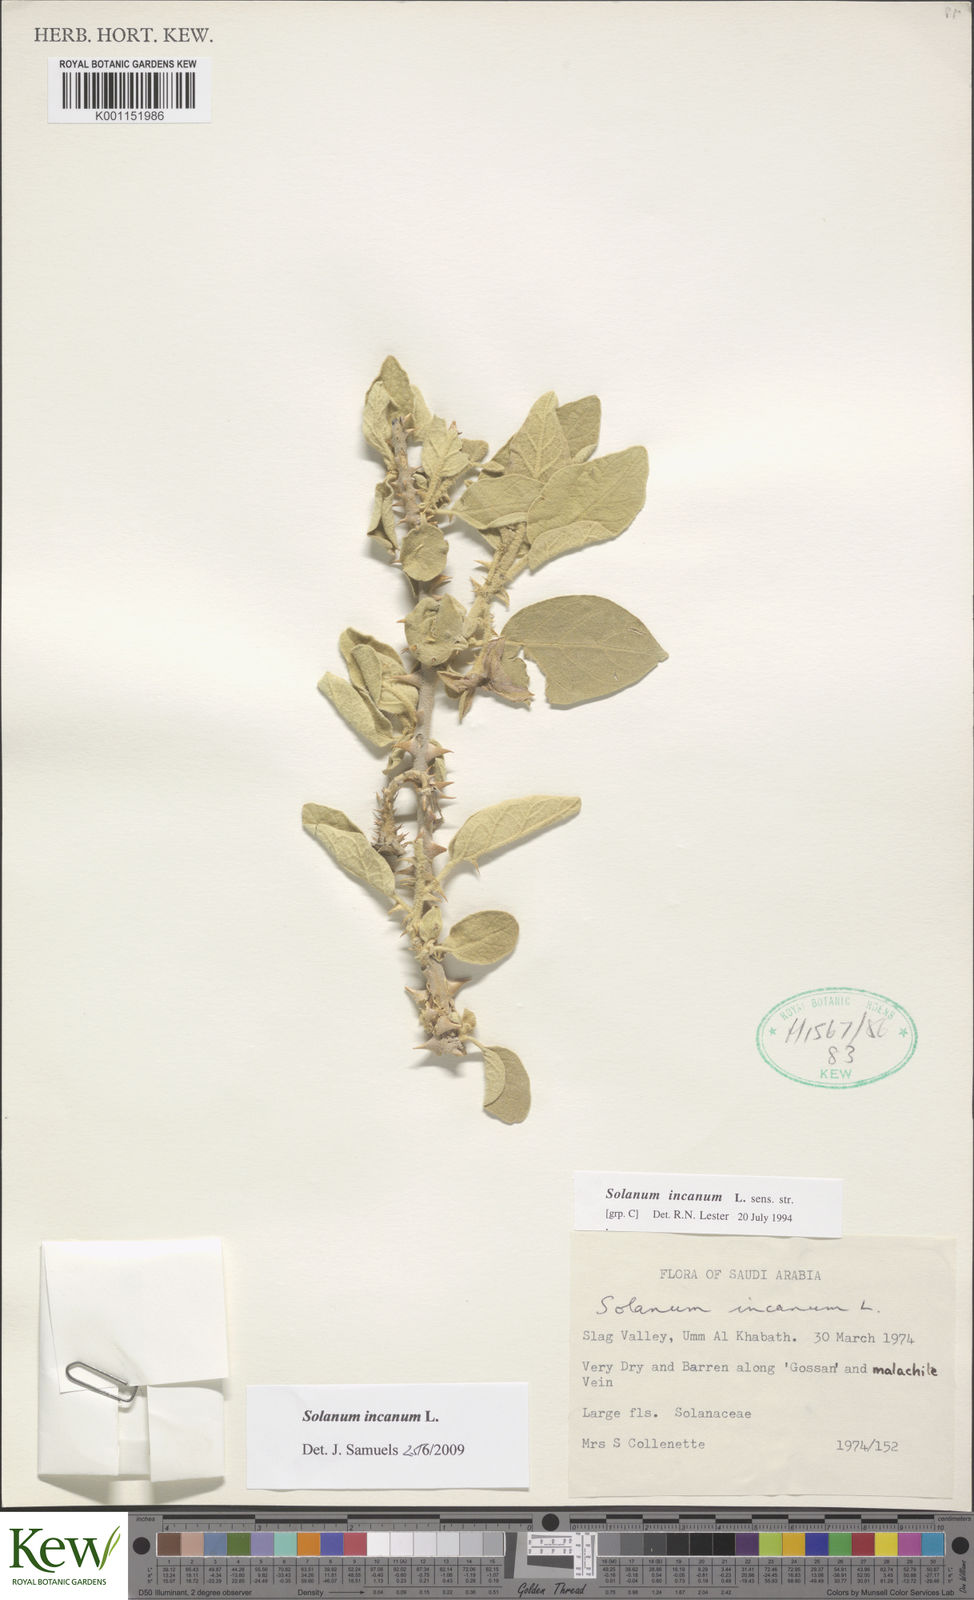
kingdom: Plantae
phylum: Tracheophyta
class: Magnoliopsida
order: Solanales
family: Solanaceae
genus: Solanum
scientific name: Solanum incanum
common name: Bitter apple
